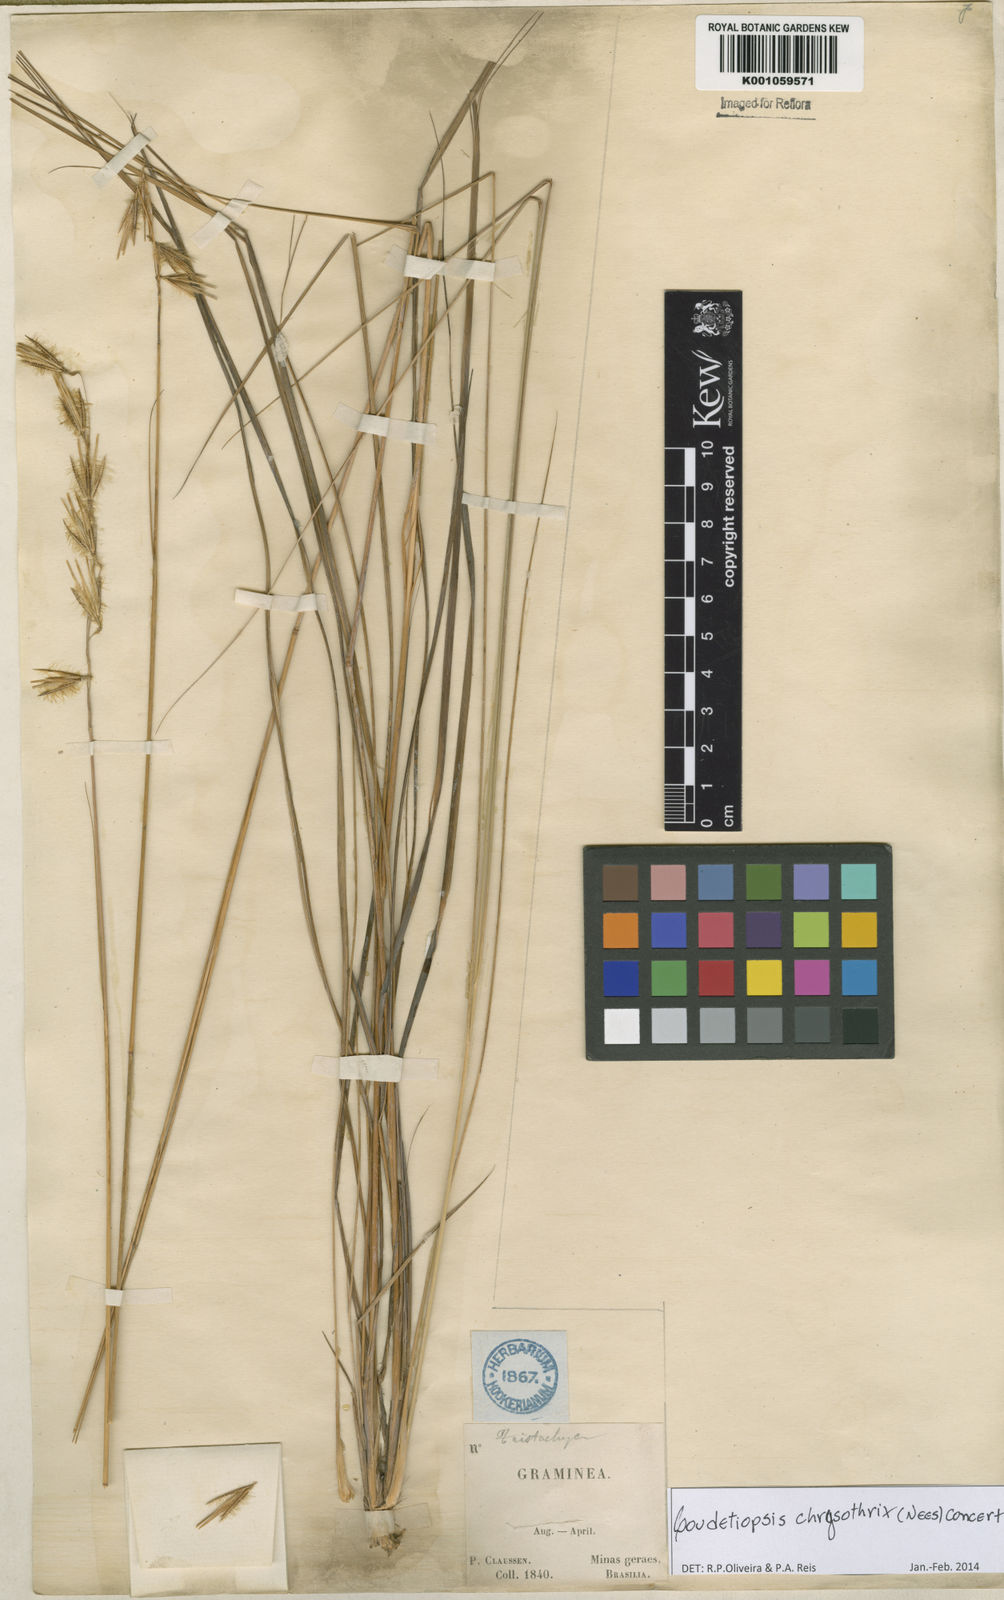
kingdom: Plantae
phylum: Tracheophyta
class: Liliopsida
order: Poales
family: Poaceae
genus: Loudetiopsis
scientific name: Loudetiopsis chrysothrix
